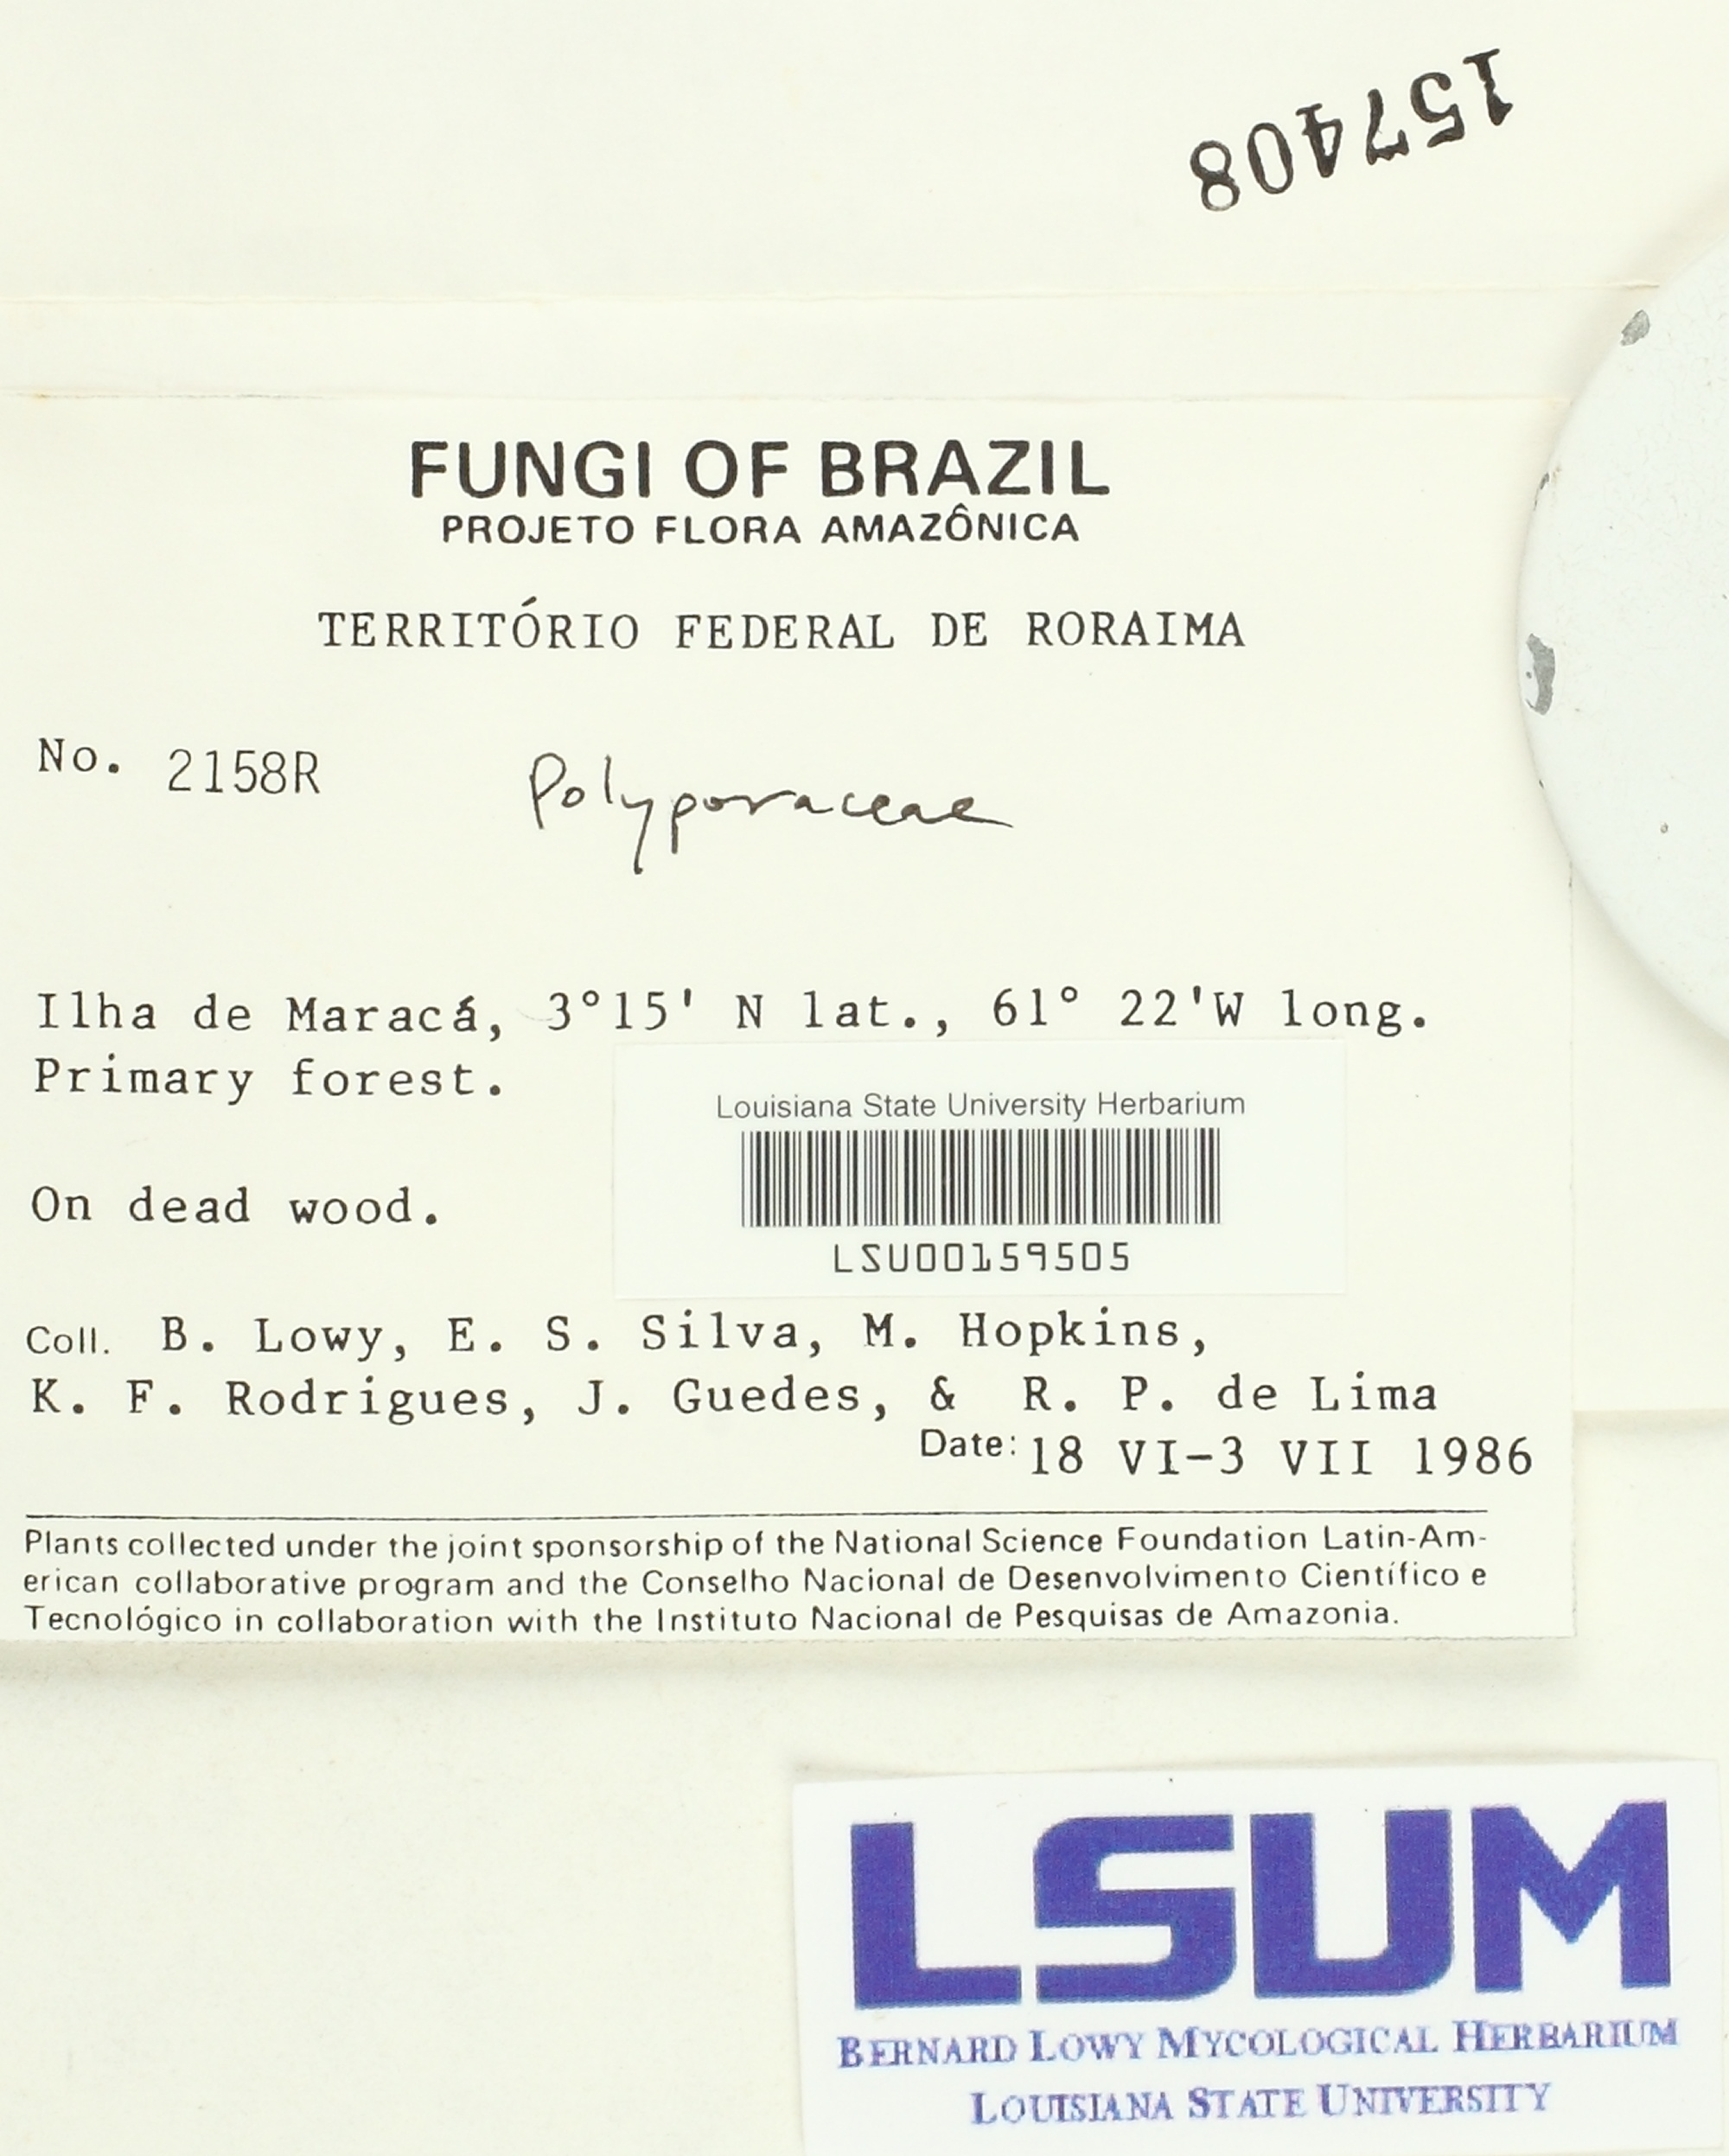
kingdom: Fungi
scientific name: Fungi
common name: Fungi
